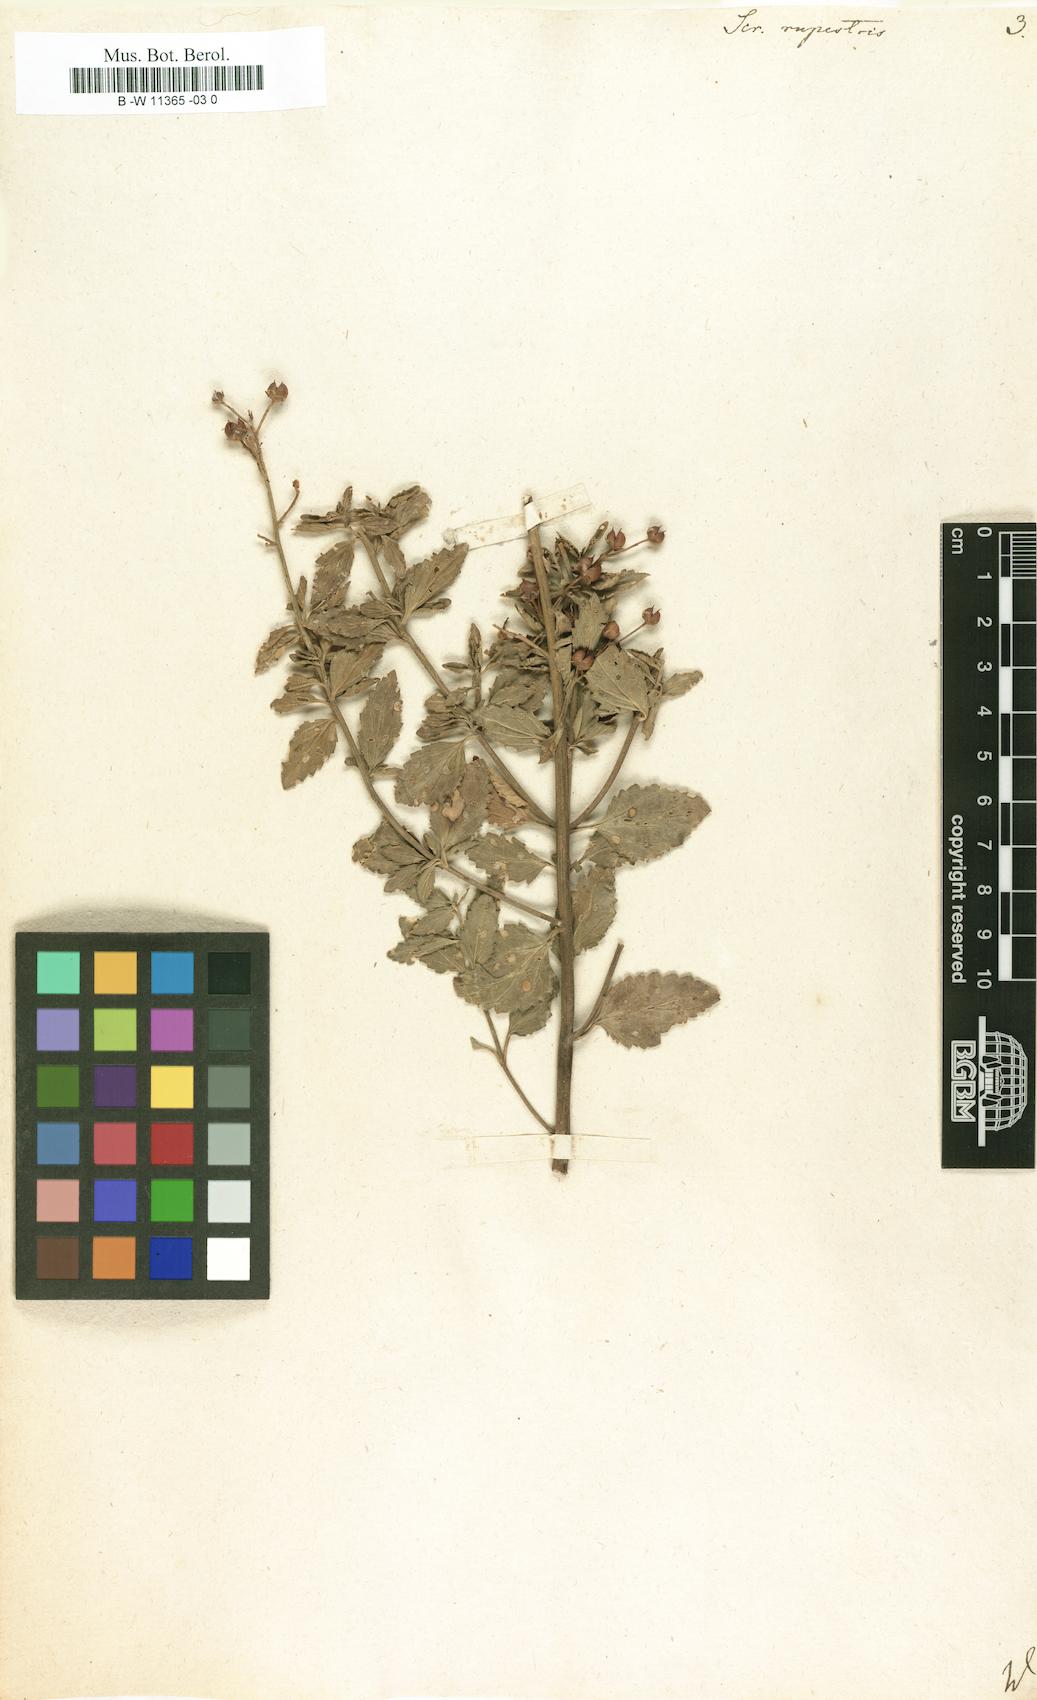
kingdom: Plantae
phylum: Tracheophyta
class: Magnoliopsida
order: Lamiales
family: Scrophulariaceae
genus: Scrophularia
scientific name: Scrophularia rupestris
